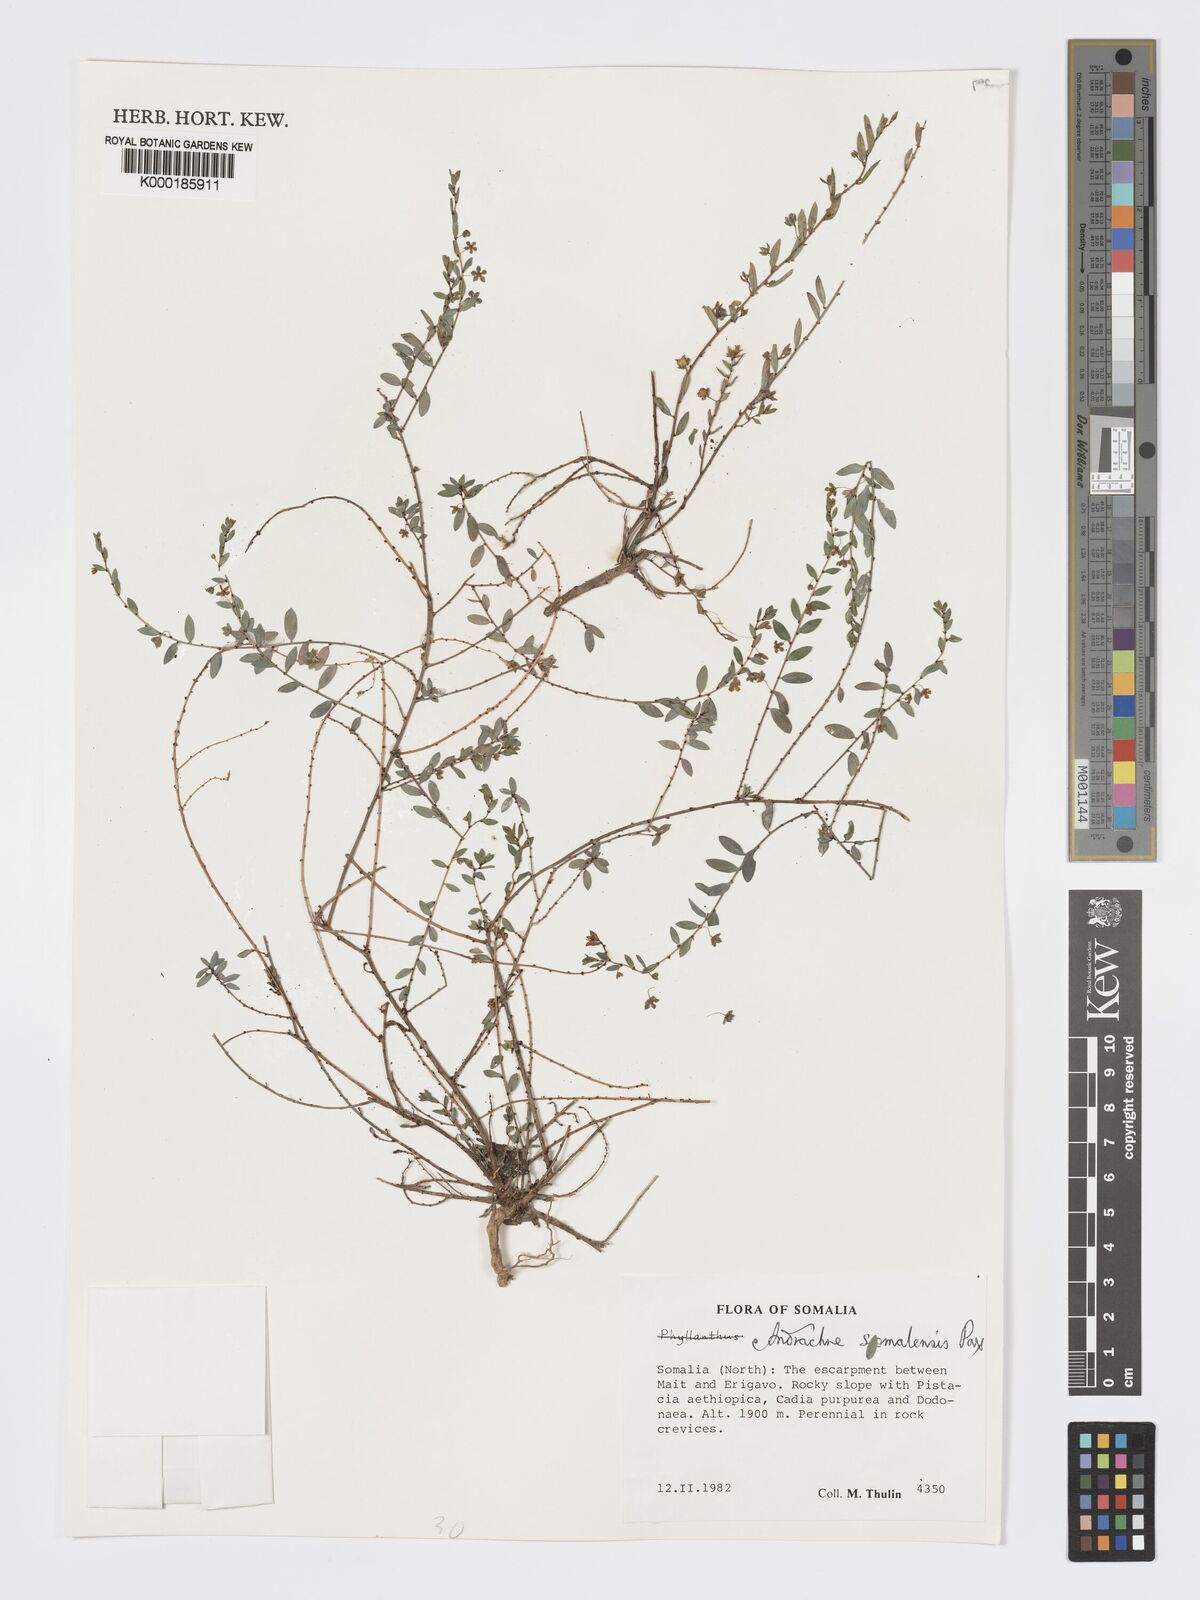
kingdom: Plantae
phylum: Tracheophyta
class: Magnoliopsida
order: Malpighiales
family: Phyllanthaceae
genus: Andrachne
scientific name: Andrachne schweinfurthii
